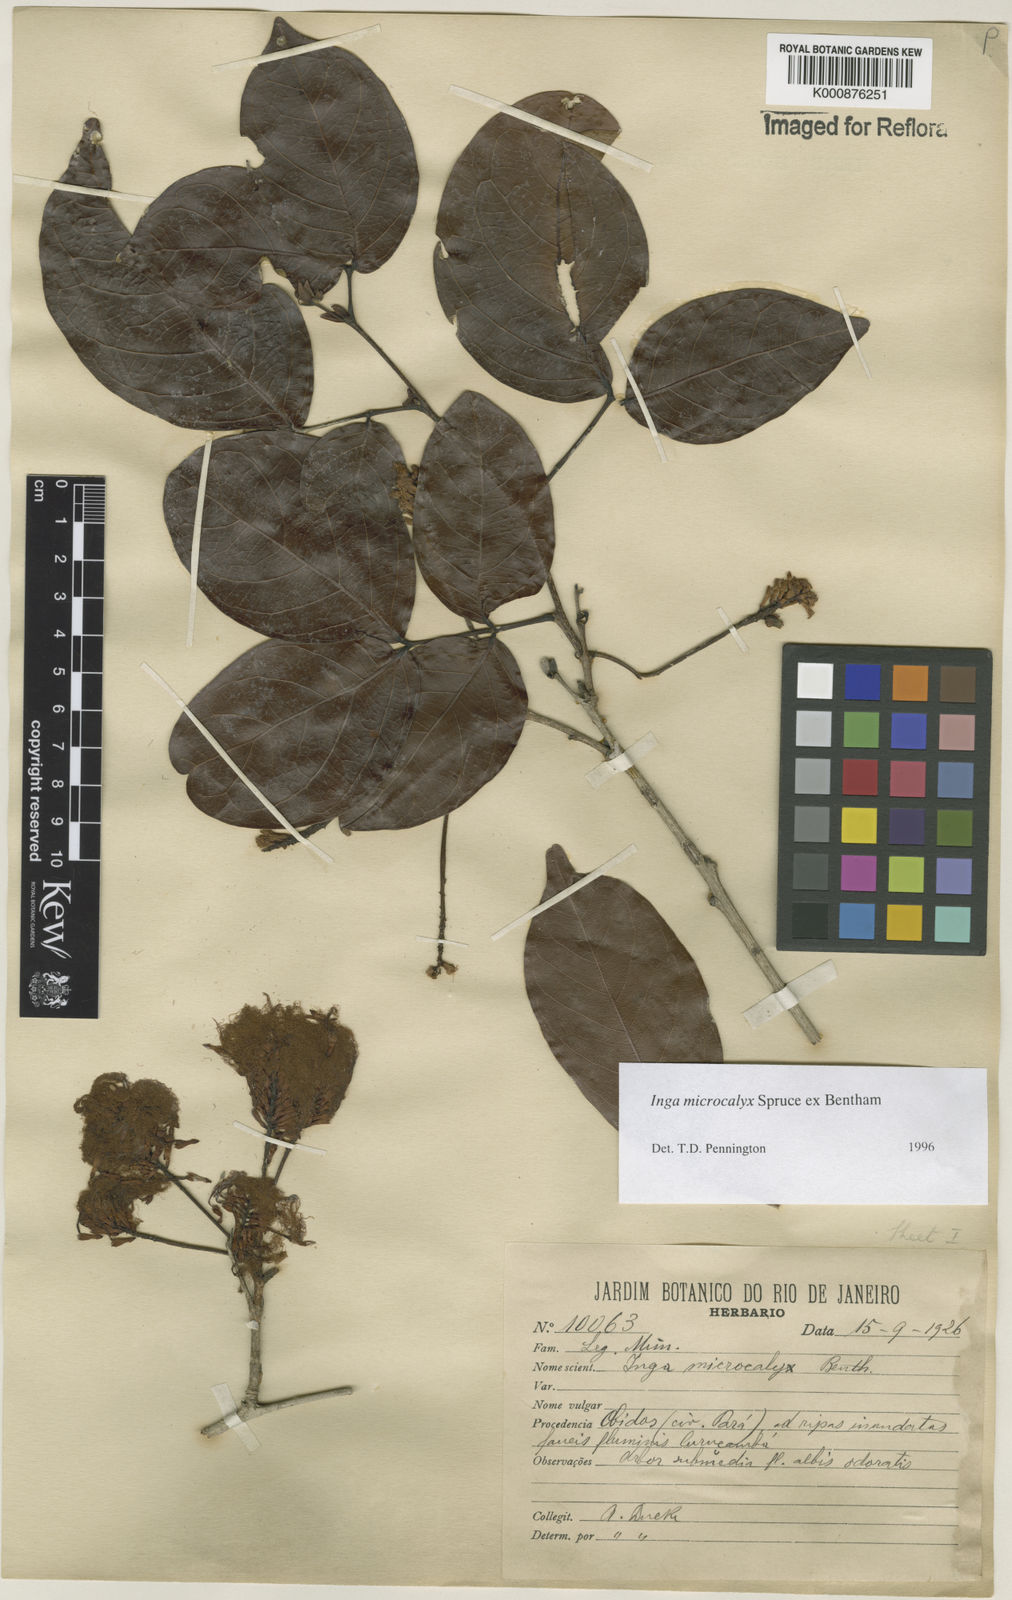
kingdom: Plantae
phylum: Tracheophyta
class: Magnoliopsida
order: Fabales
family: Fabaceae
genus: Inga
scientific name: Inga microcalyx
